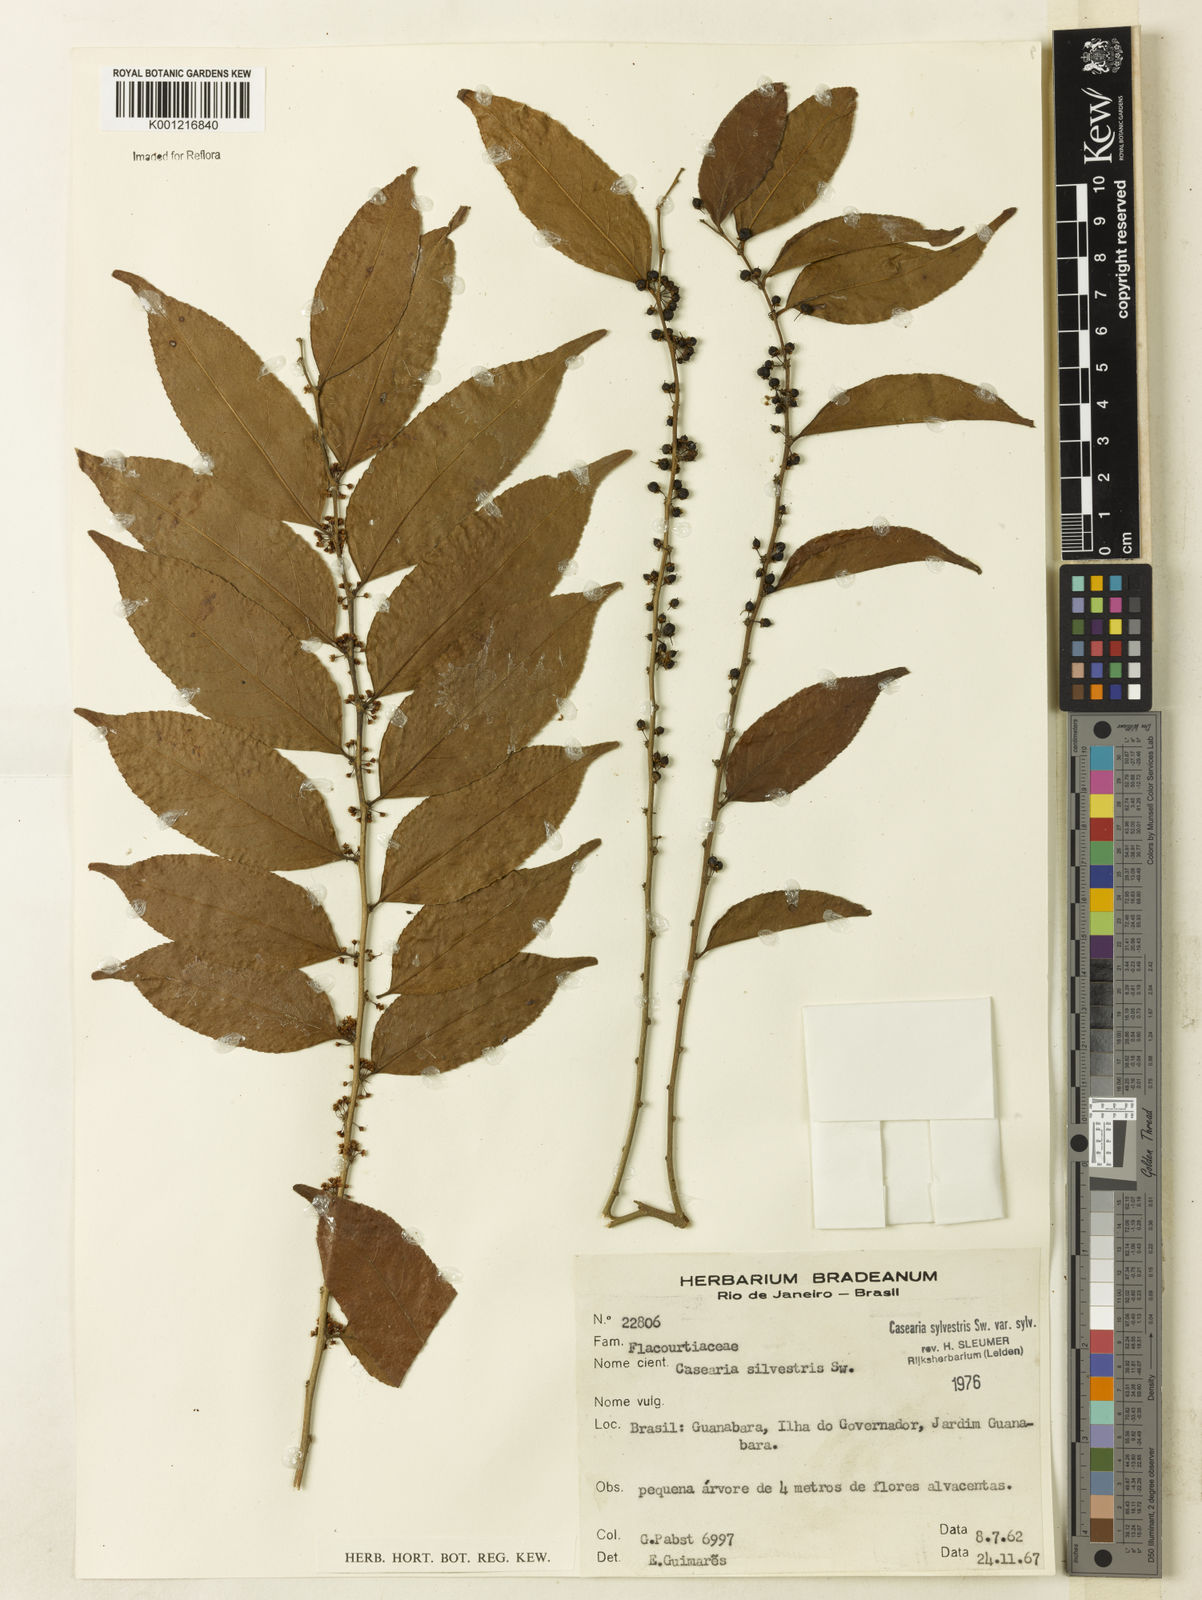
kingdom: Plantae
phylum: Tracheophyta
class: Magnoliopsida
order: Malpighiales
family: Salicaceae
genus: Casearia
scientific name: Casearia sylvestris
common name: Wild sage
